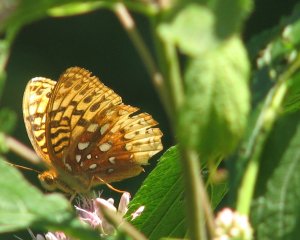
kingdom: Animalia
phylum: Arthropoda
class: Insecta
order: Lepidoptera
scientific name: Lepidoptera
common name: Butterflies
